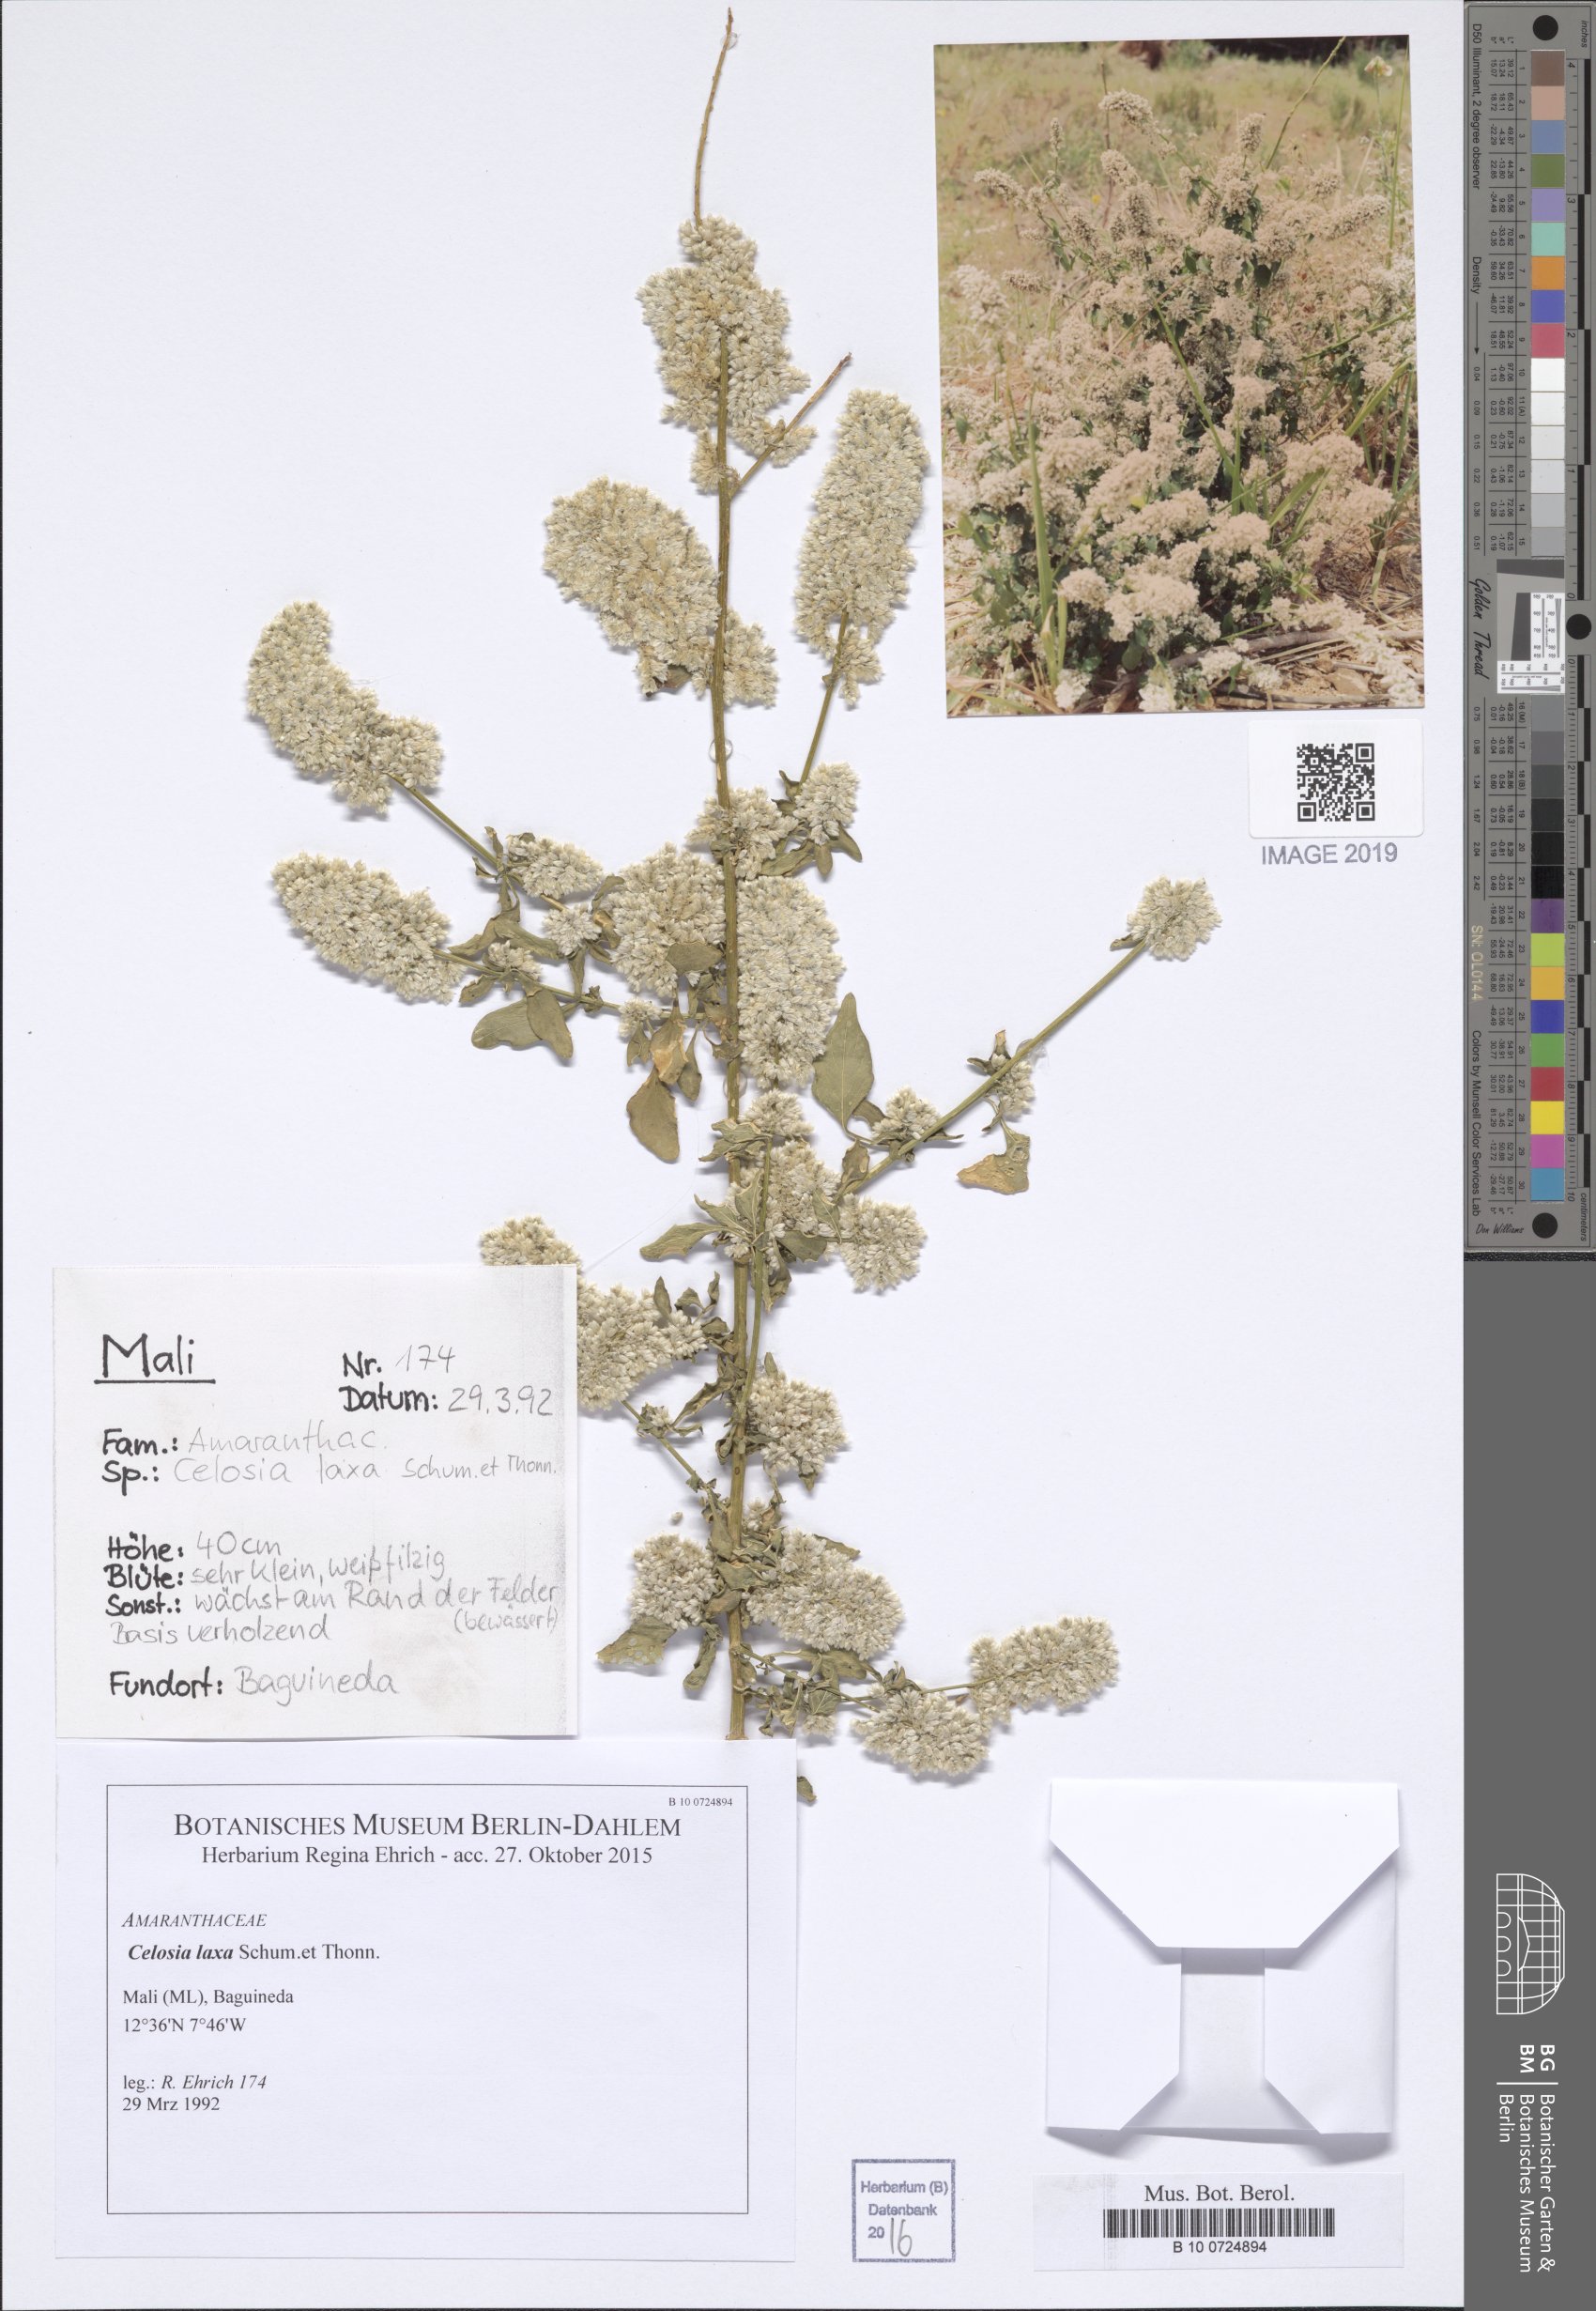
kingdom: Plantae
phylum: Tracheophyta
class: Magnoliopsida
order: Caryophyllales
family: Amaranthaceae
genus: Celosia
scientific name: Celosia trigyna
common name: Woolflower
